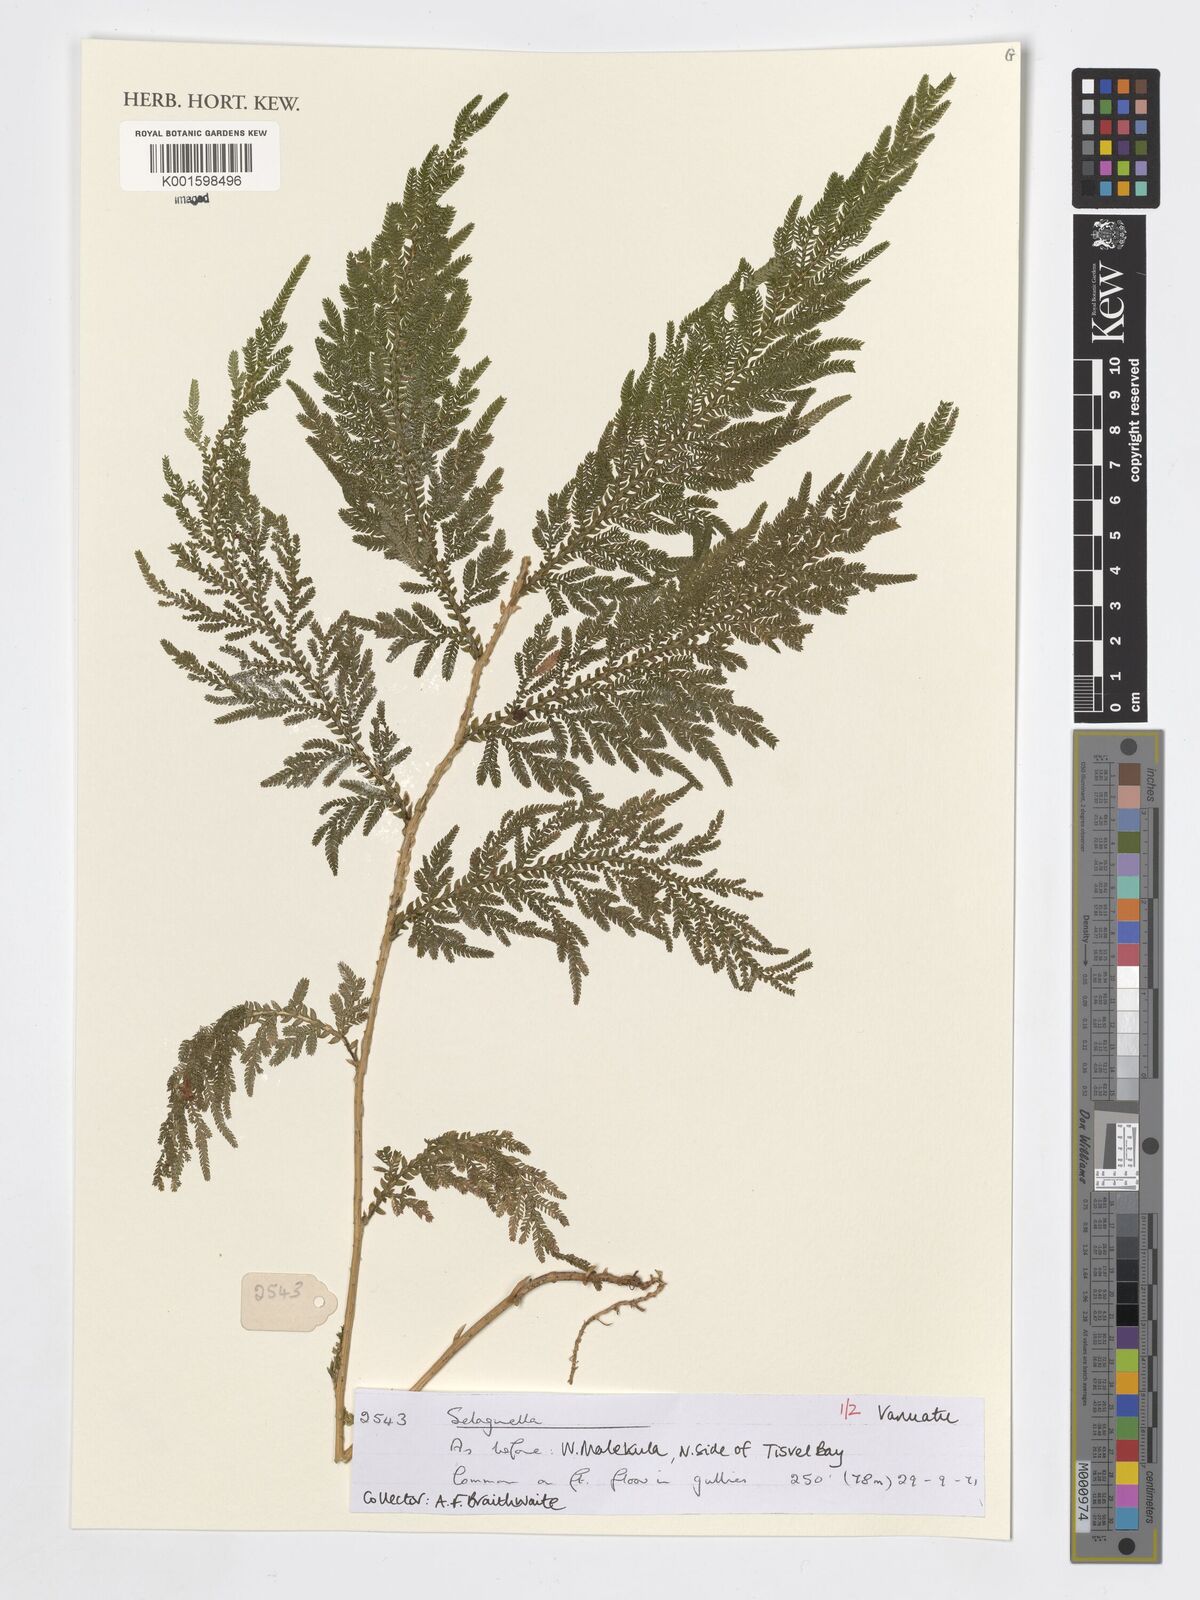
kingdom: Plantae
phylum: Tracheophyta
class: Lycopodiopsida
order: Selaginellales
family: Selaginellaceae
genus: Selaginella
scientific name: Selaginella
